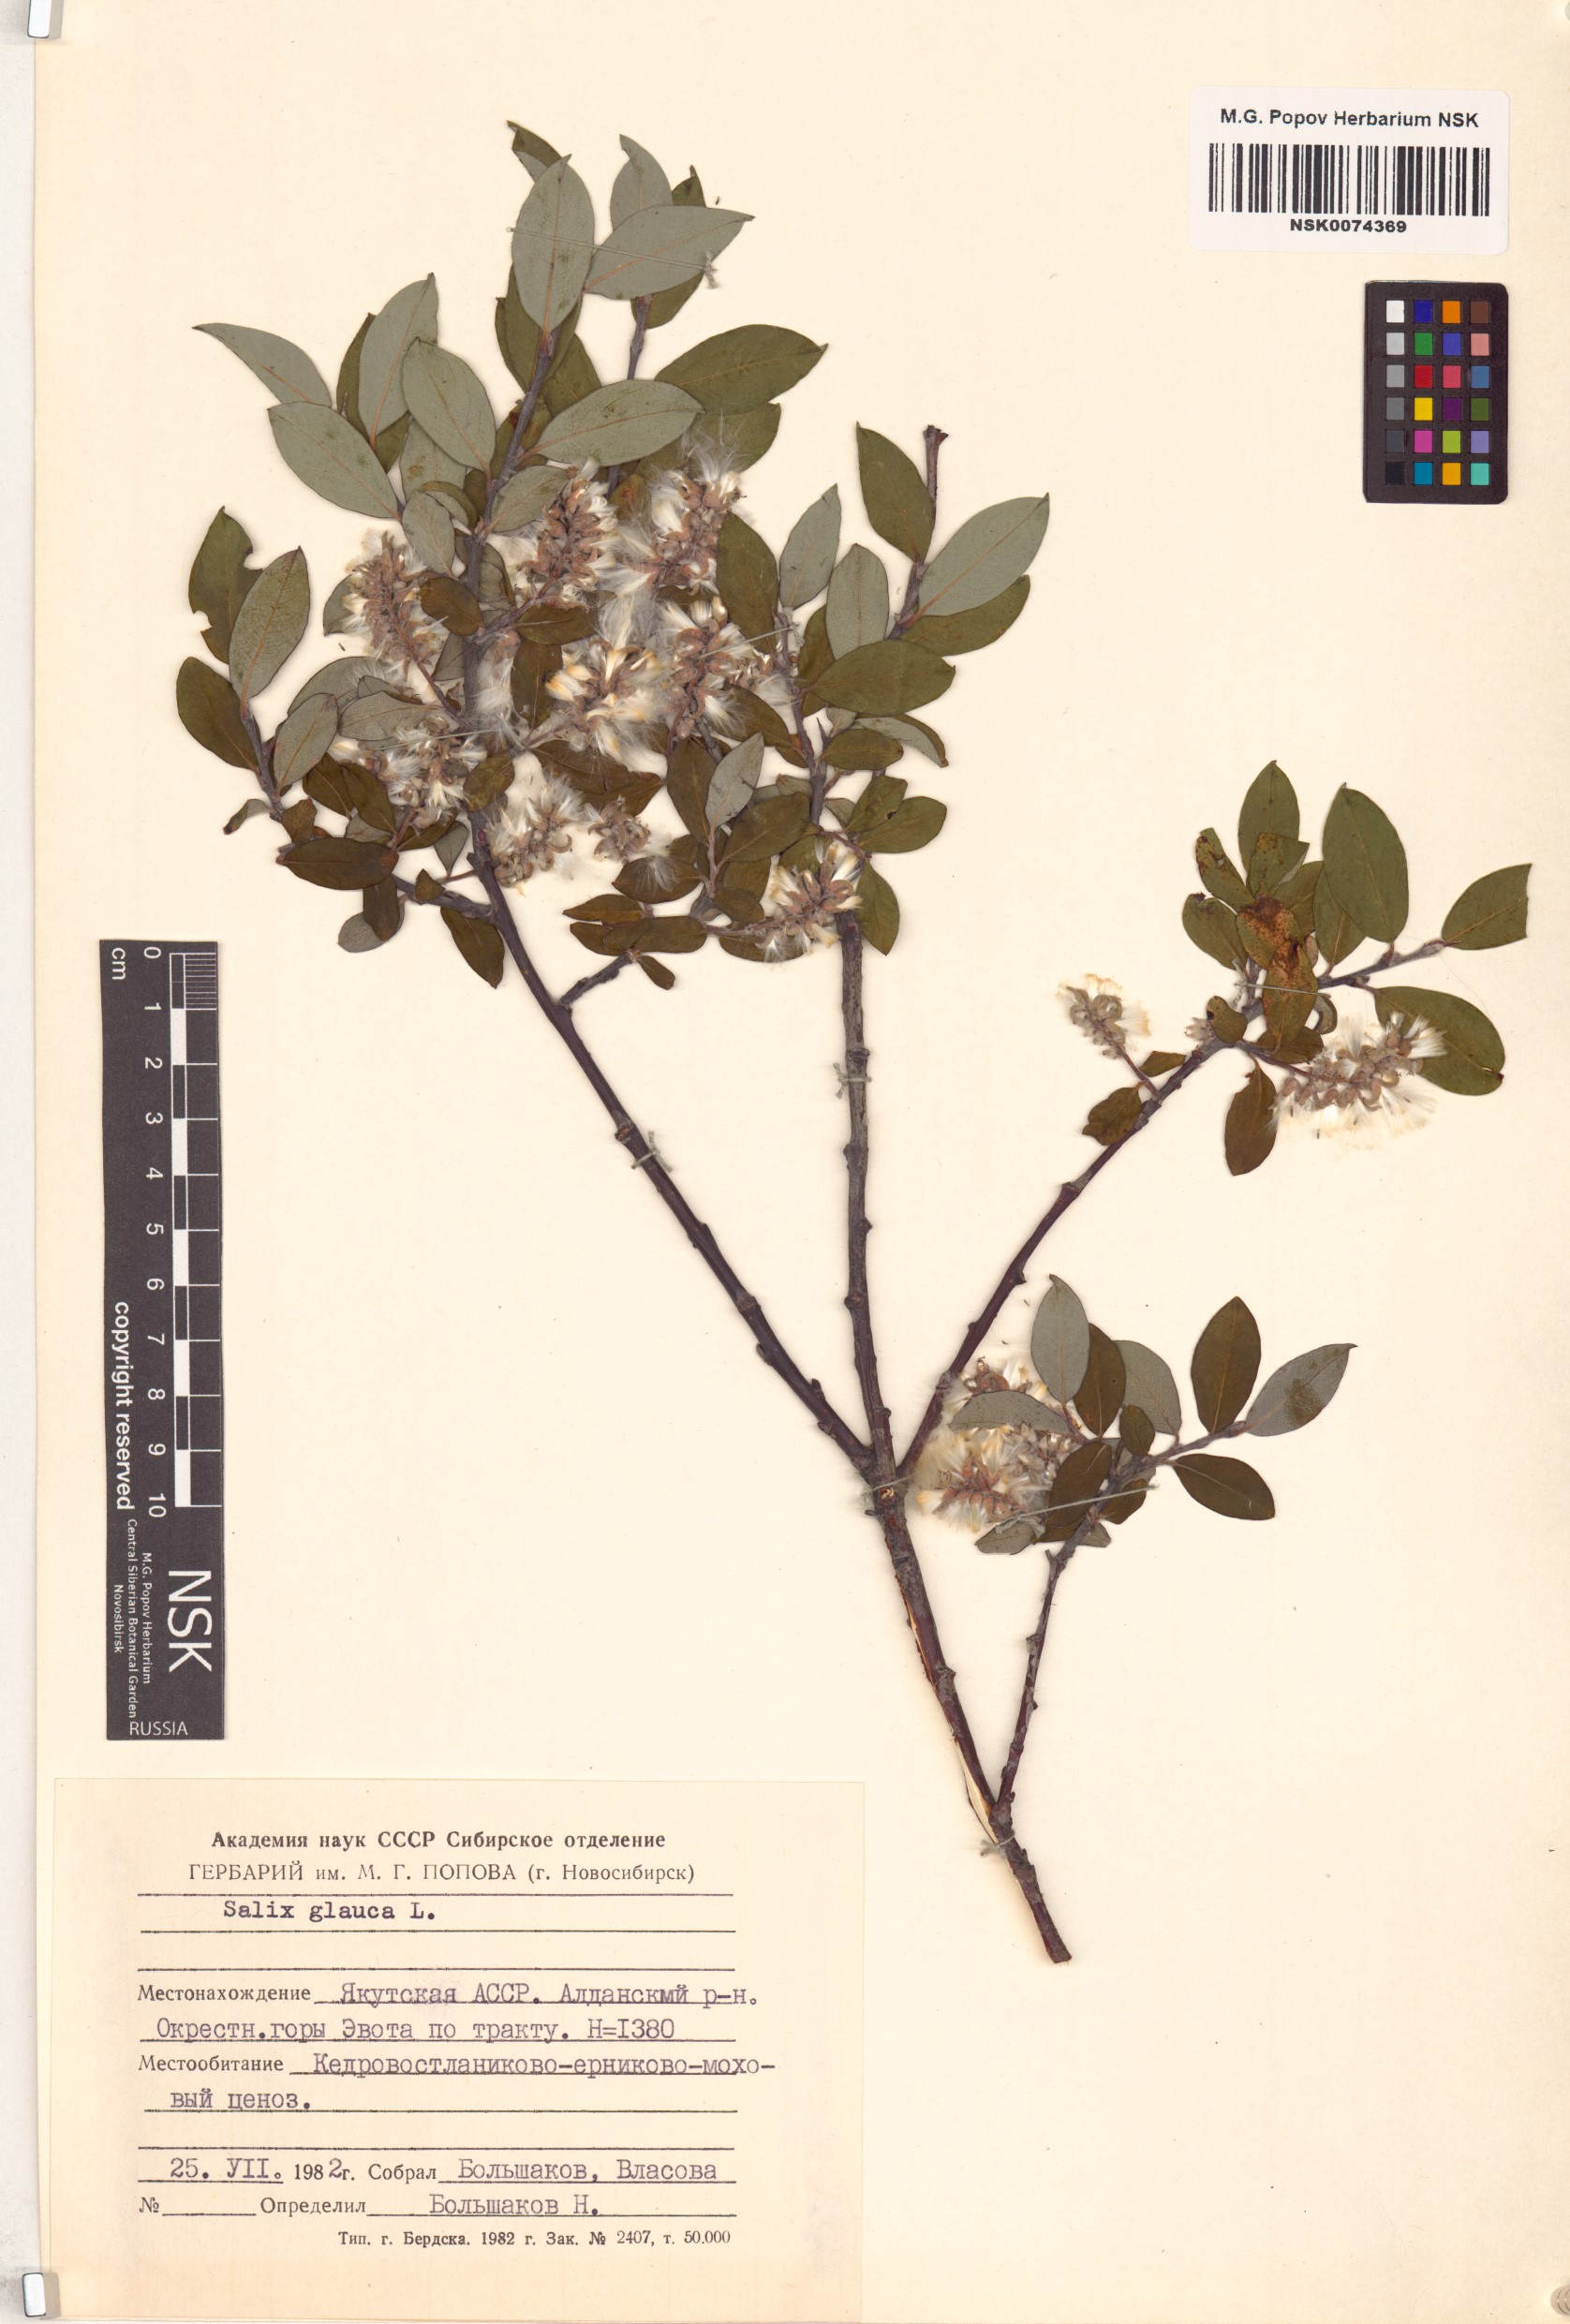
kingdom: Plantae
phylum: Tracheophyta
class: Magnoliopsida
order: Malpighiales
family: Salicaceae
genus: Salix
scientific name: Salix glauca
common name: Glaucous willow
